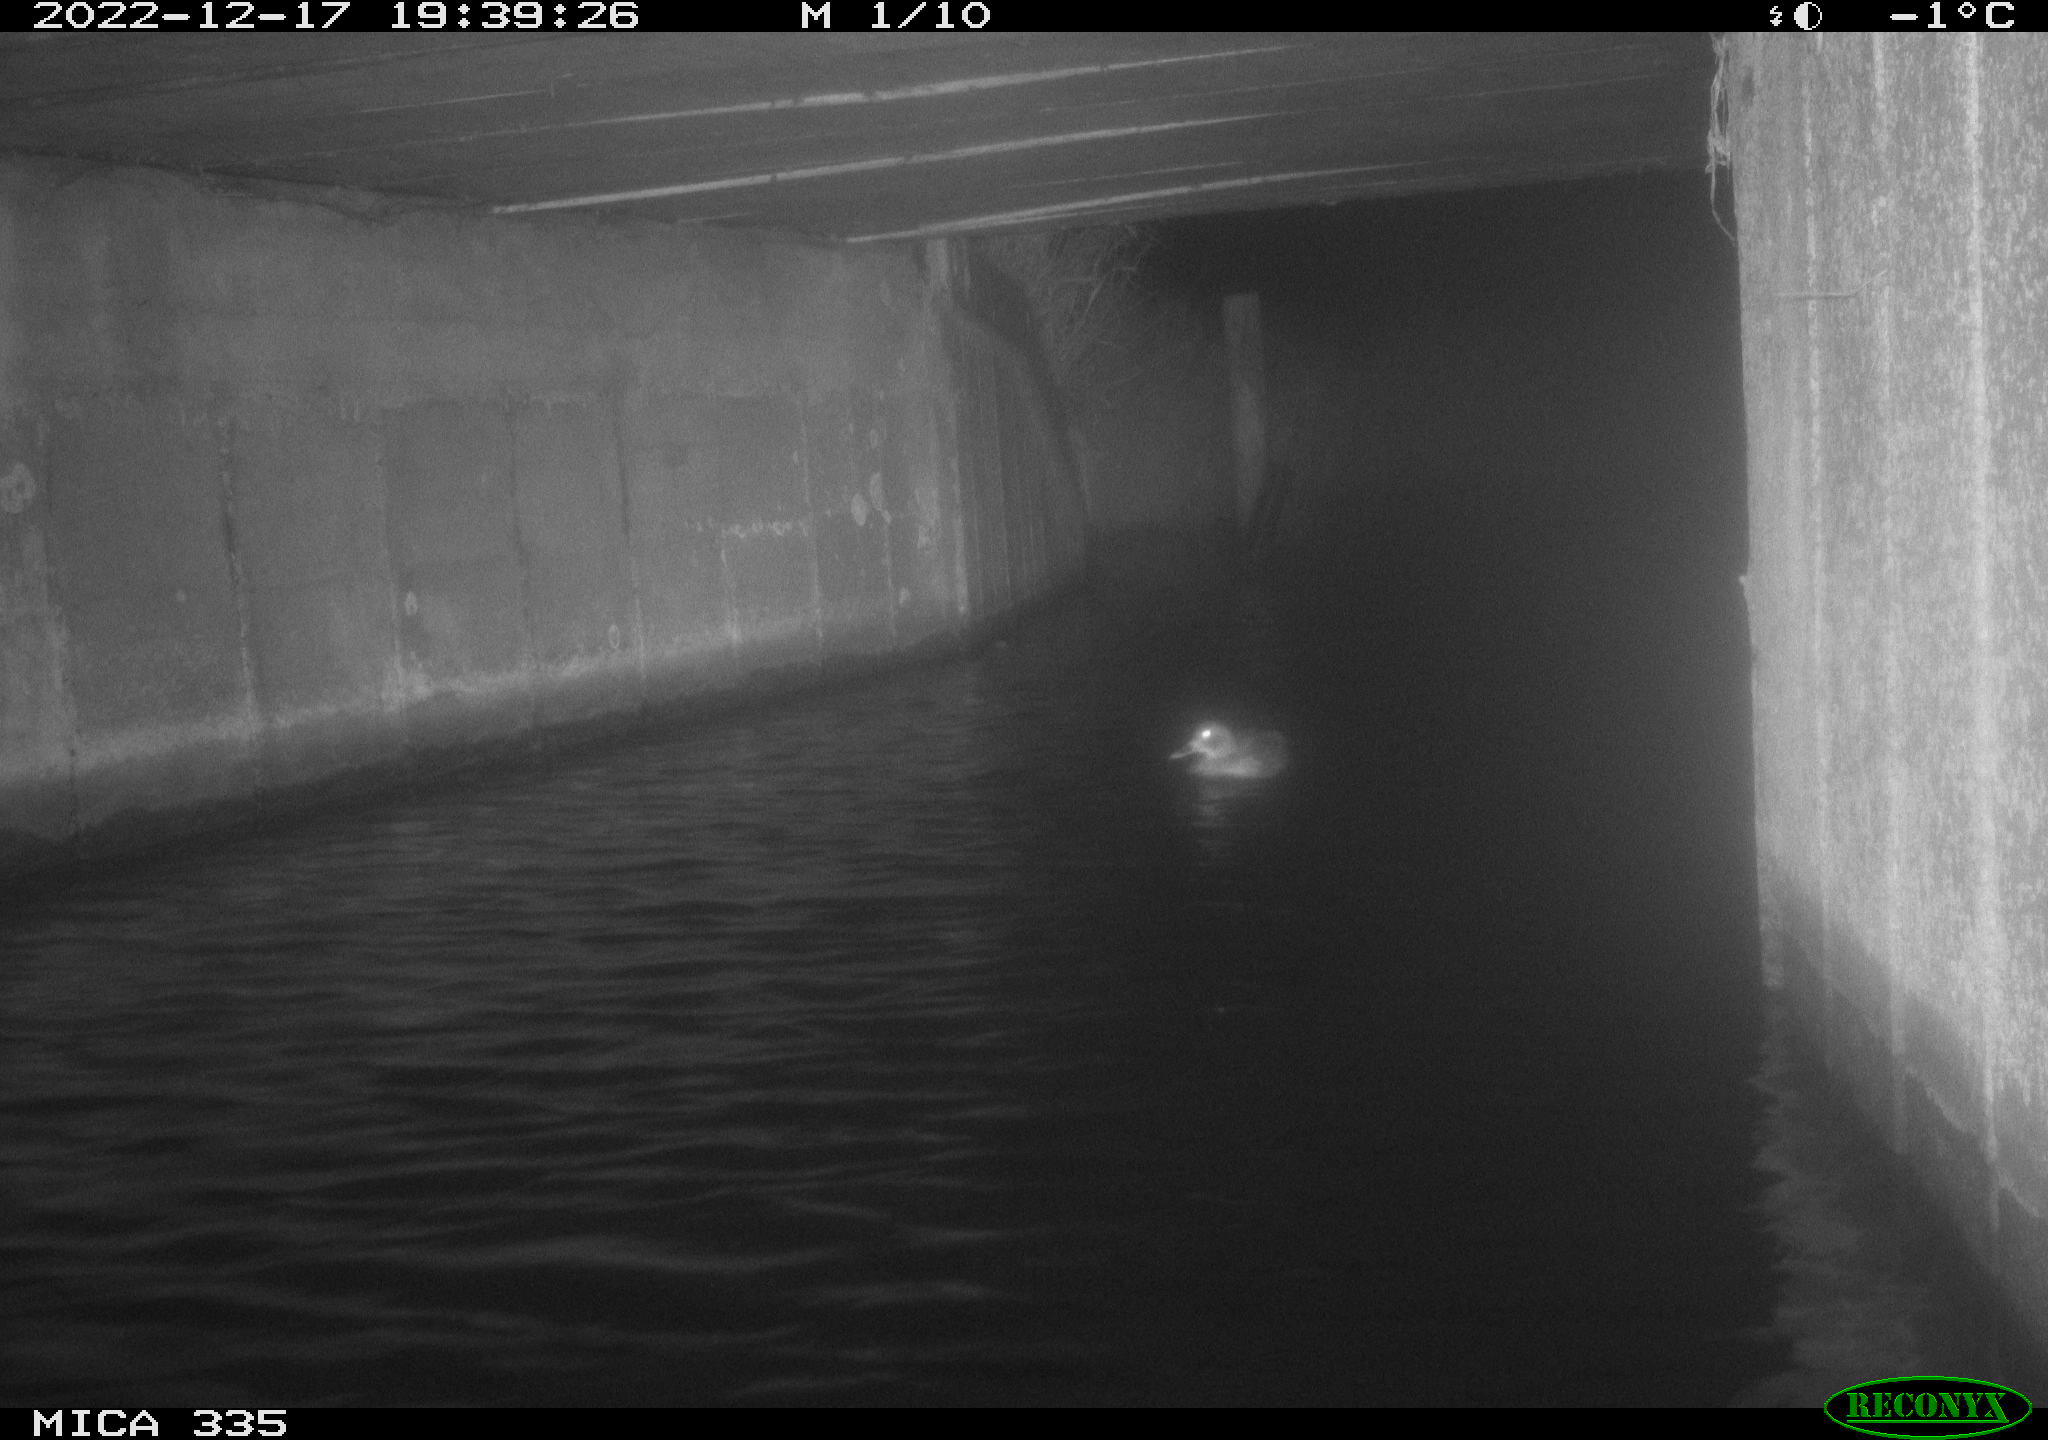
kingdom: Animalia
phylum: Chordata
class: Aves
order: Anseriformes
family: Anatidae
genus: Anas
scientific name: Anas
